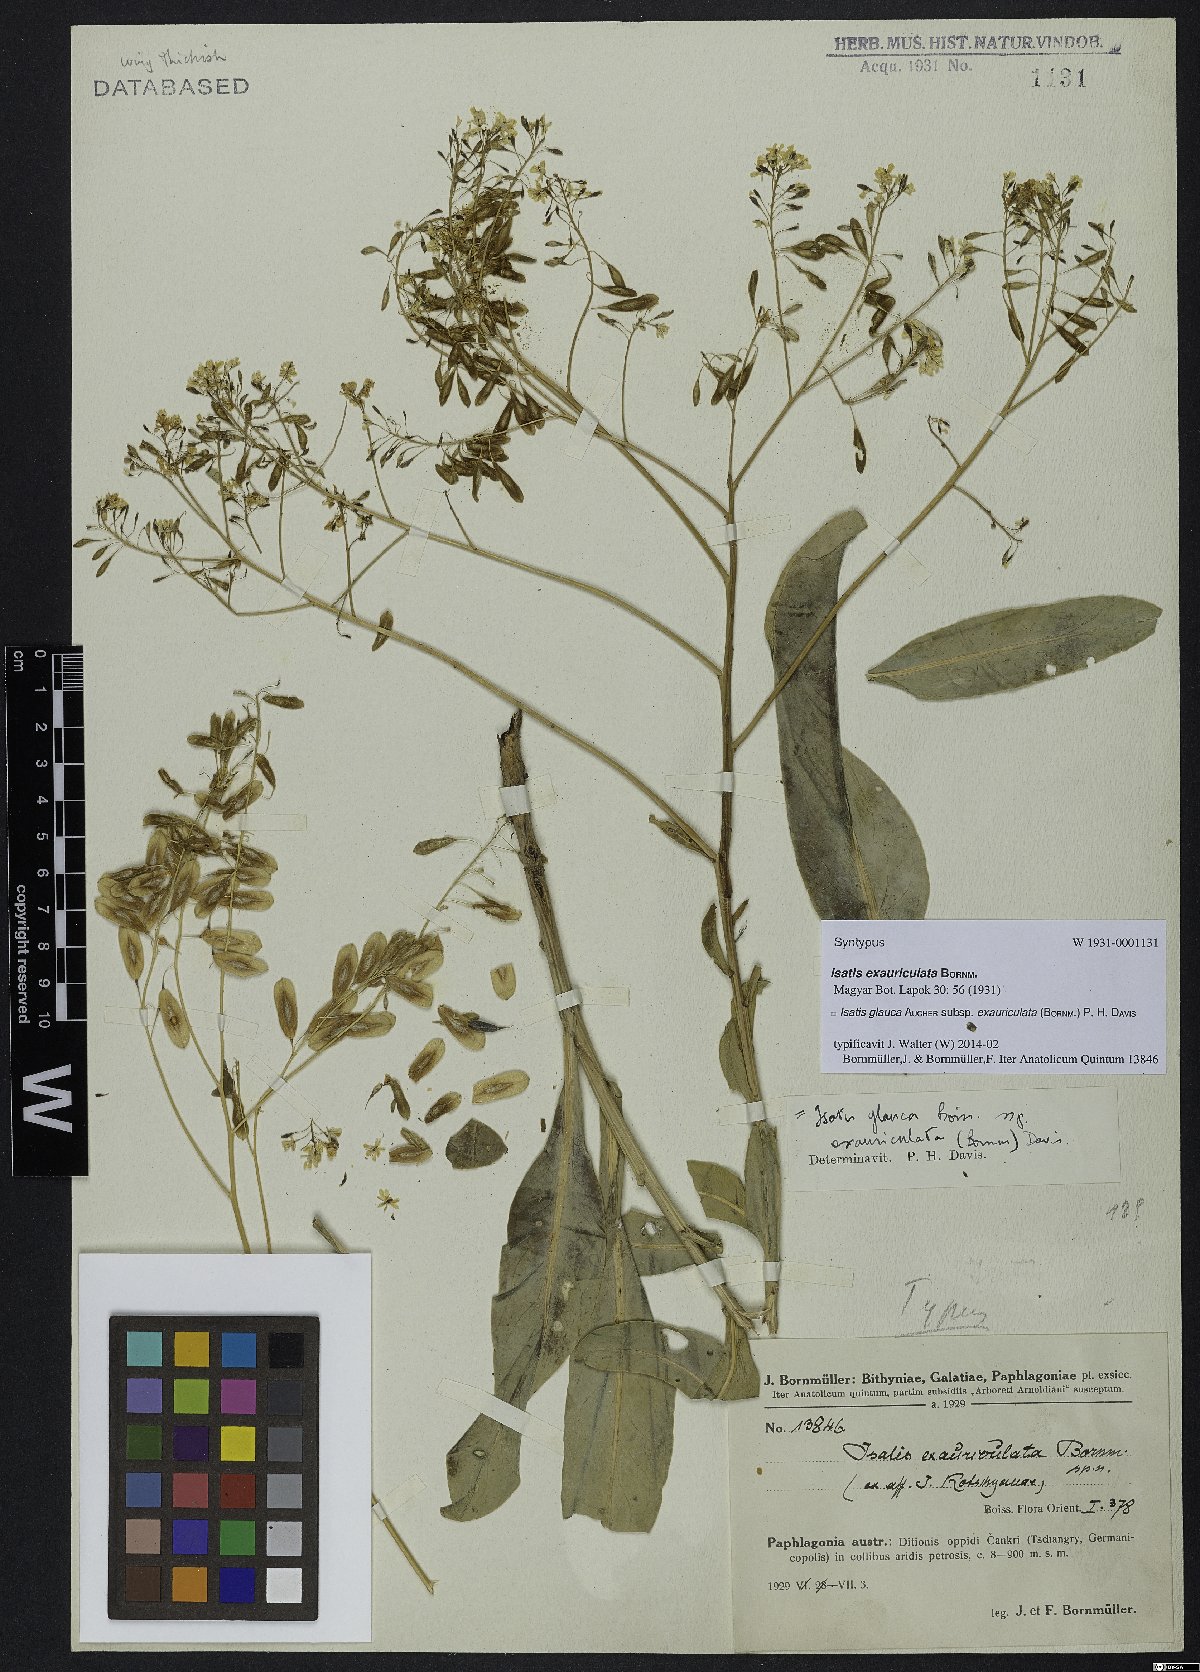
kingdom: Plantae
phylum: Tracheophyta
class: Magnoliopsida
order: Brassicales
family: Brassicaceae
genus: Isatis
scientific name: Isatis glauca
